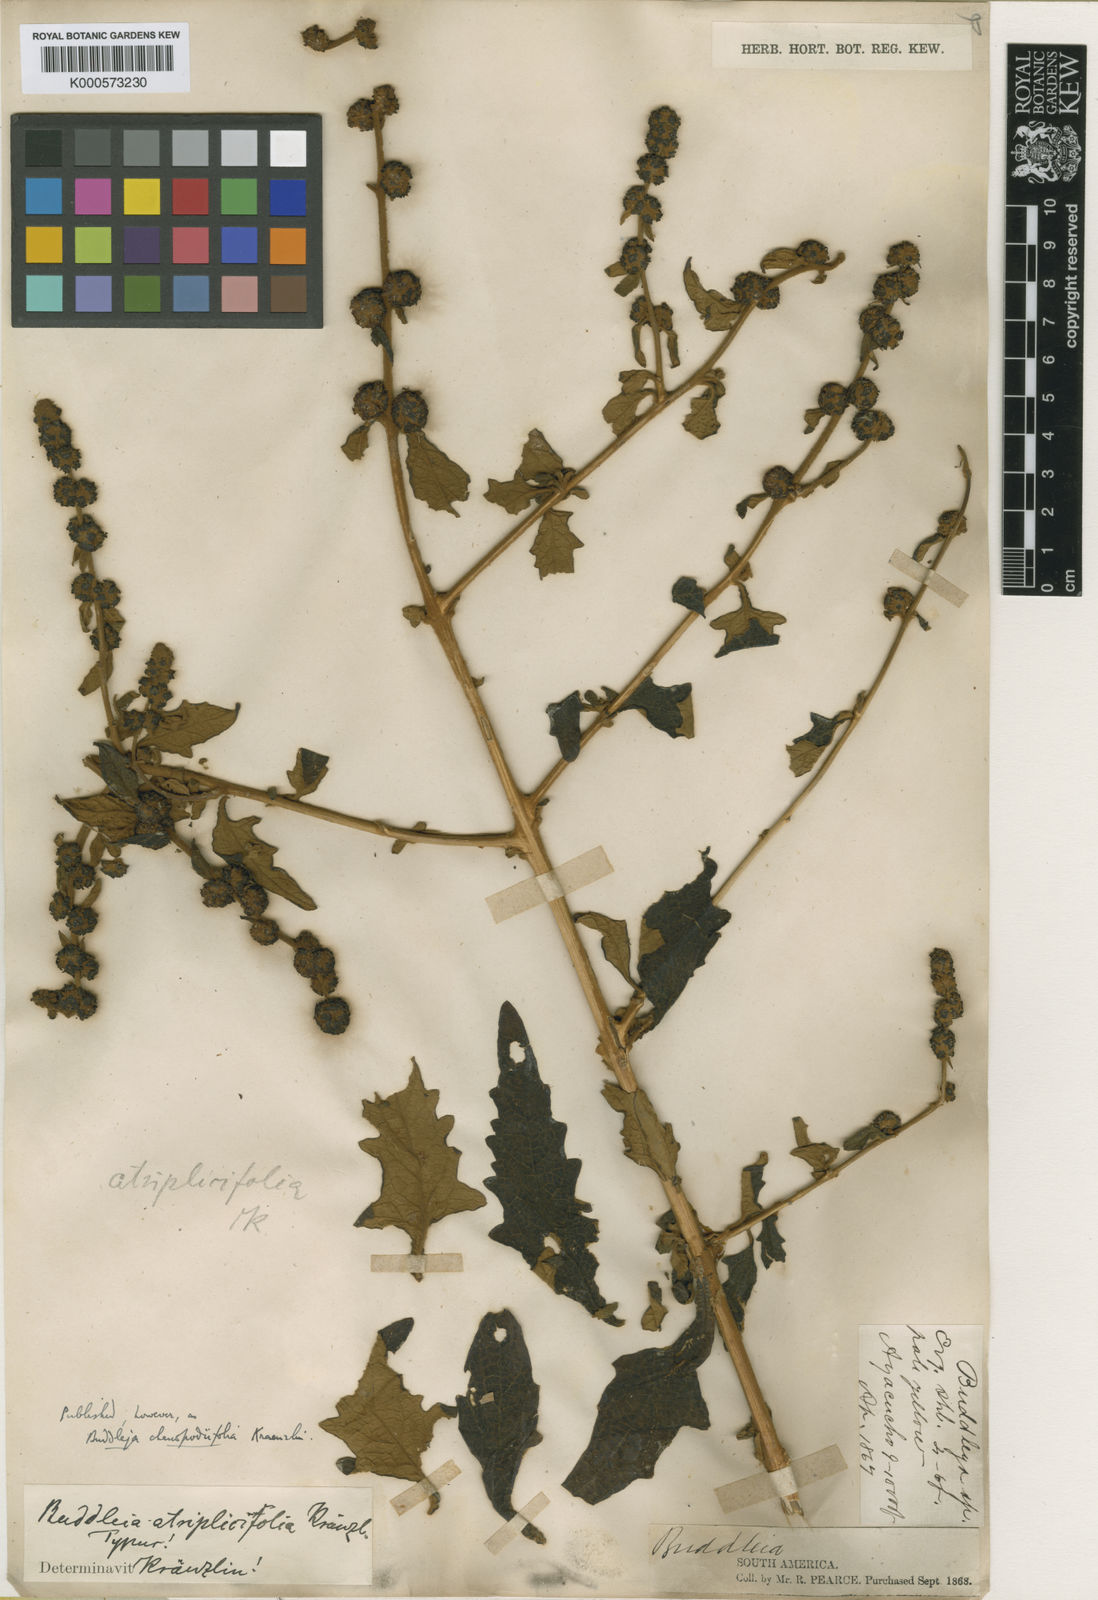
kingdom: Plantae
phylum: Tracheophyta
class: Magnoliopsida
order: Lamiales
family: Scrophulariaceae
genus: Buddleja
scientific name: Buddleja chenopodiifolia
